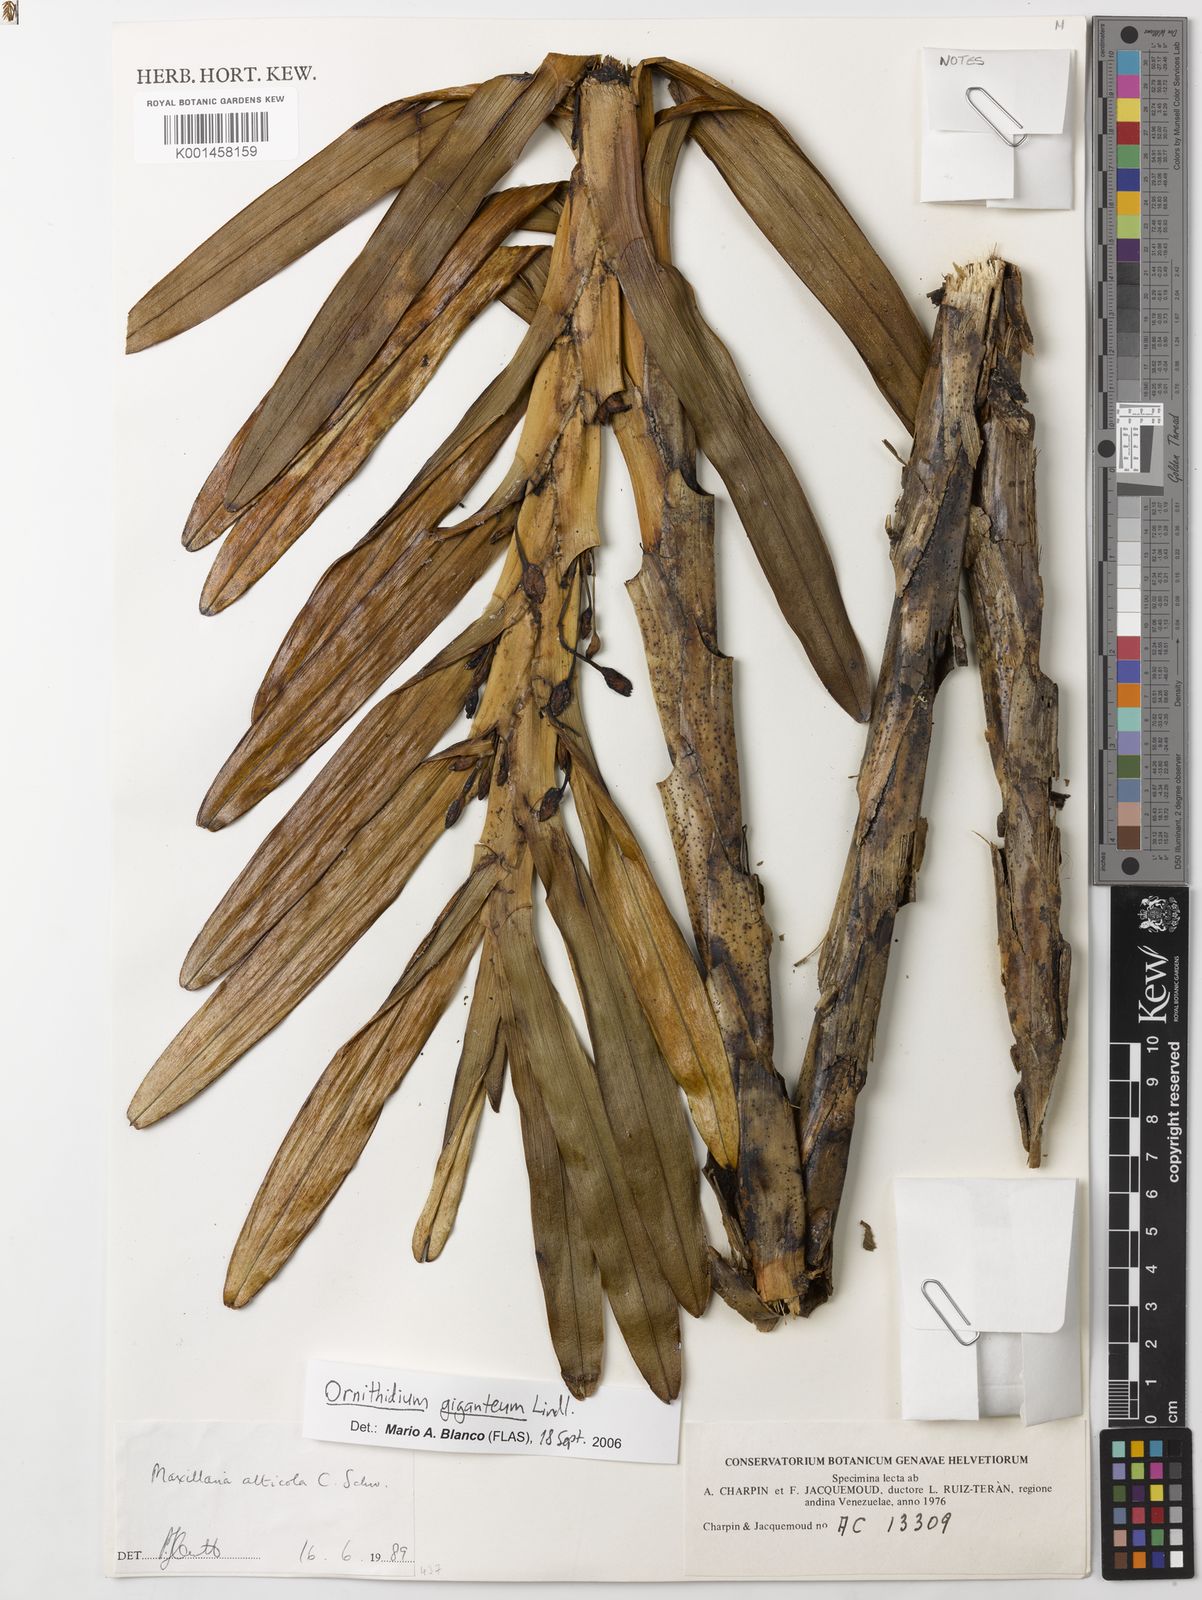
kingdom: Plantae
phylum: Tracheophyta
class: Liliopsida
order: Asparagales
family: Orchidaceae
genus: Maxillaria
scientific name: Maxillaria aurea
